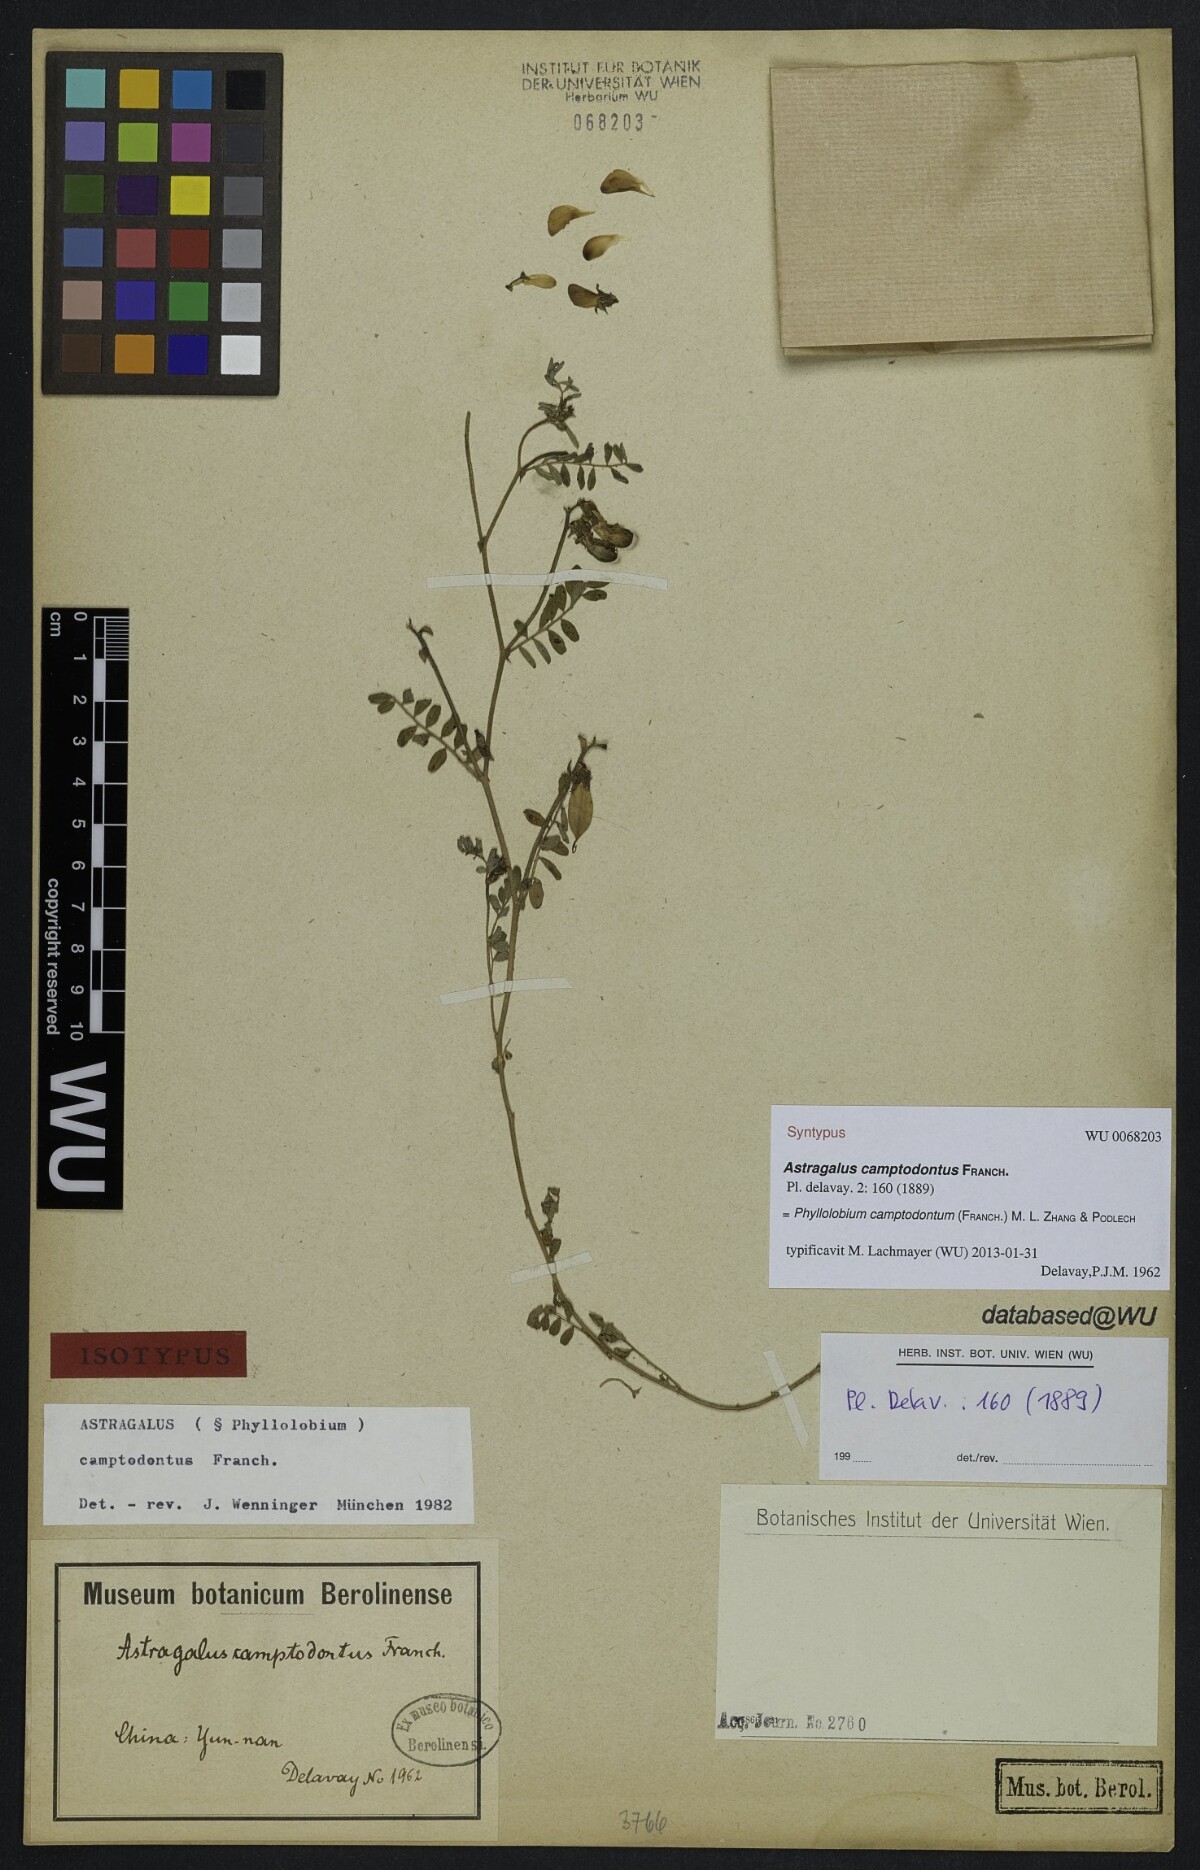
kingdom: Plantae
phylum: Tracheophyta
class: Magnoliopsida
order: Fabales
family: Fabaceae
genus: Phyllolobium
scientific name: Phyllolobium camptodontum
